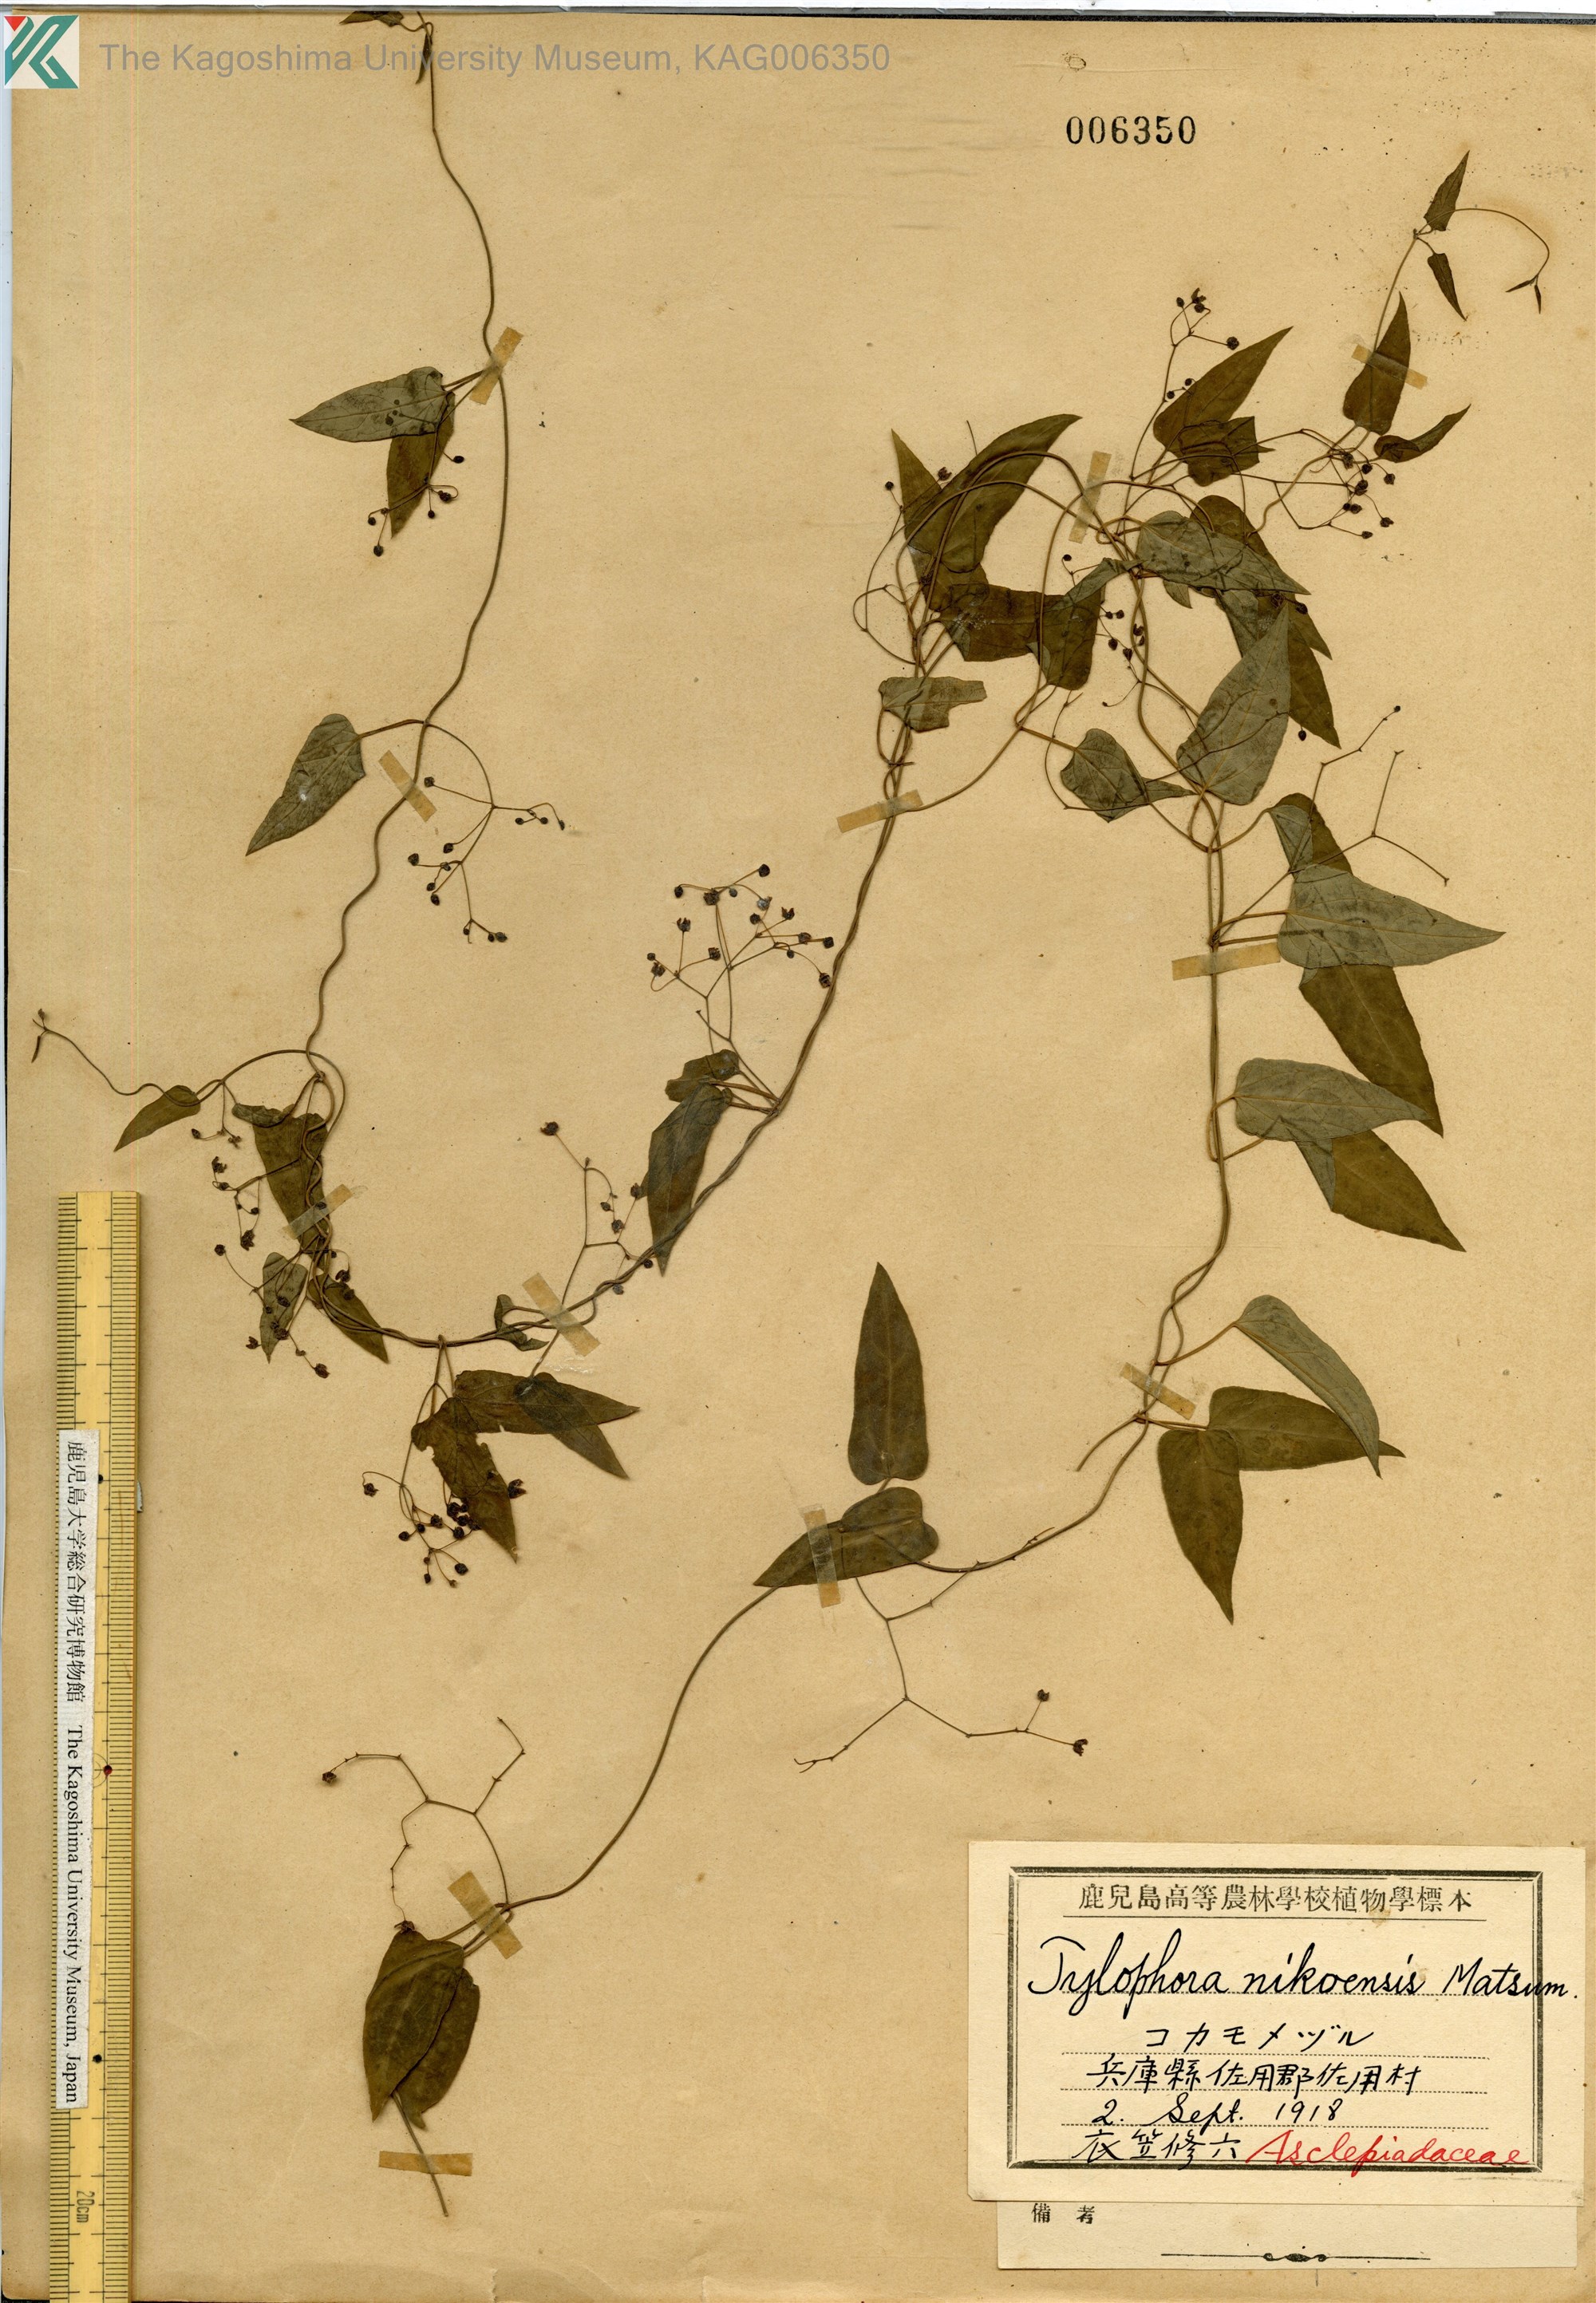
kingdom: Plantae
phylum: Tracheophyta
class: Magnoliopsida
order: Gentianales
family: Apocynaceae
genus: Vincetoxicum
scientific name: Vincetoxicum nikoense
